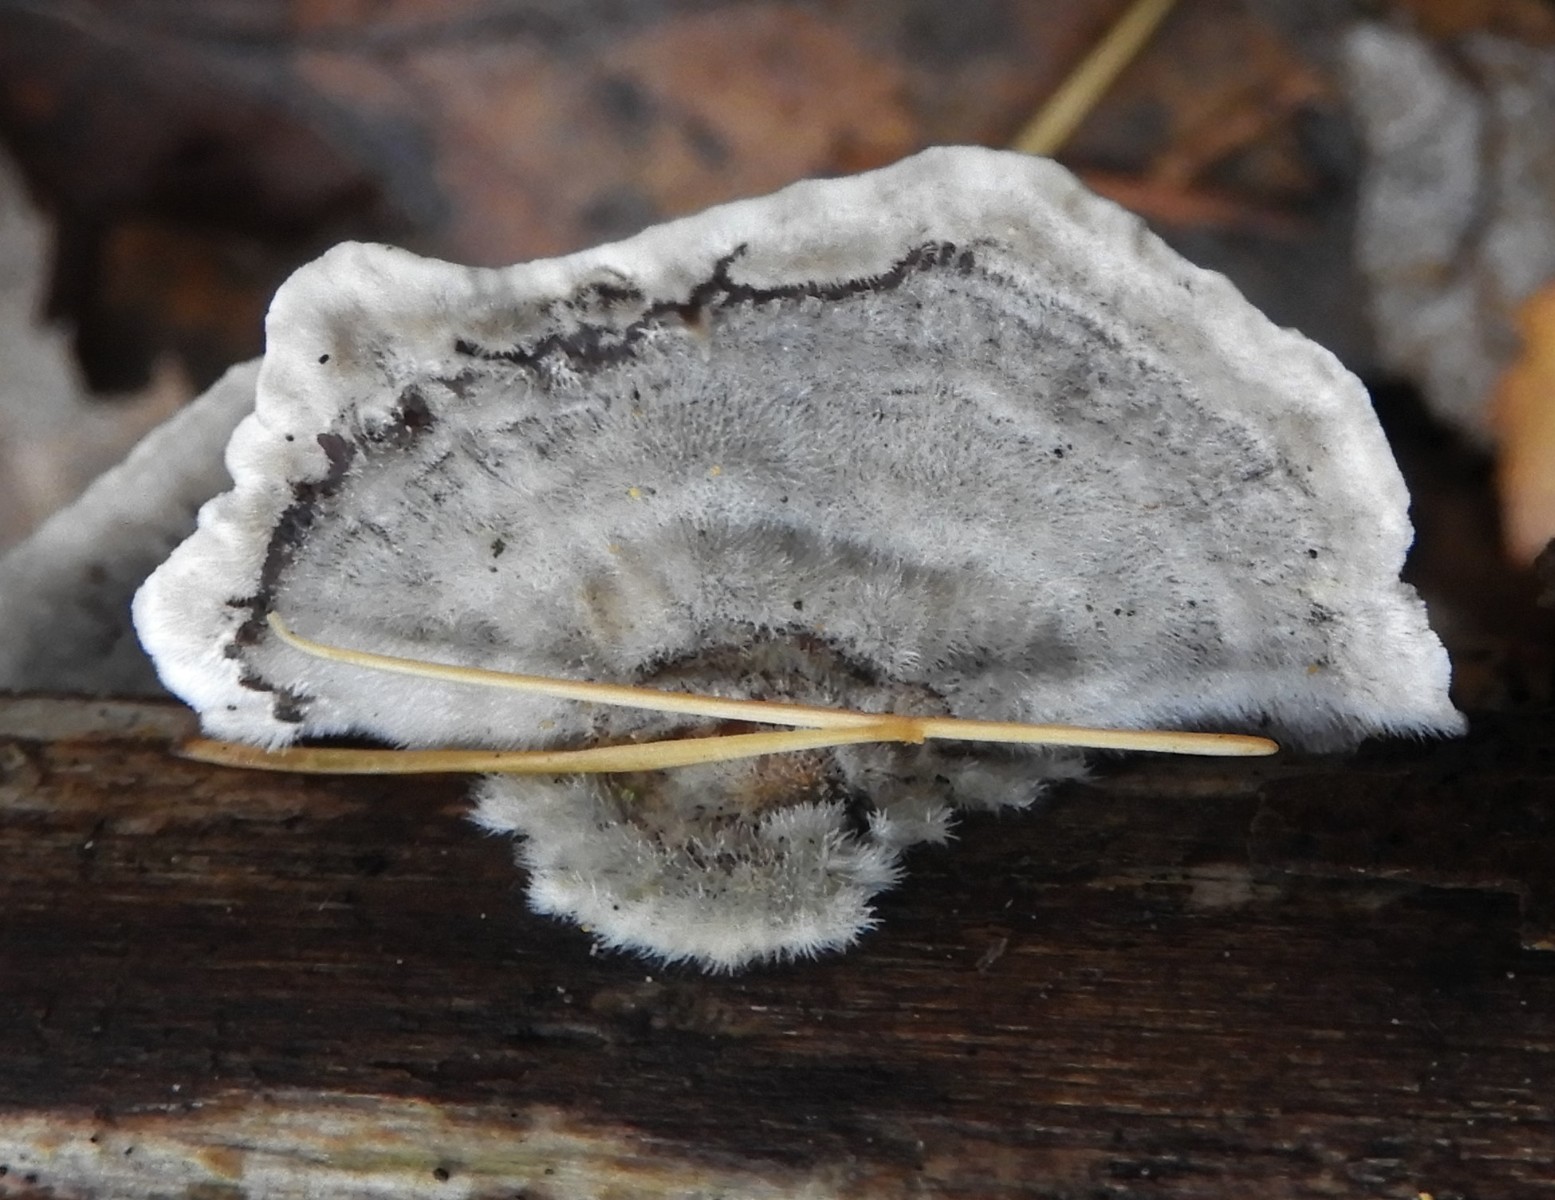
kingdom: Fungi
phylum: Basidiomycota
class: Agaricomycetes
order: Polyporales
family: Polyporaceae
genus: Trametes
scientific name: Trametes hirsuta
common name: håret læderporesvamp
